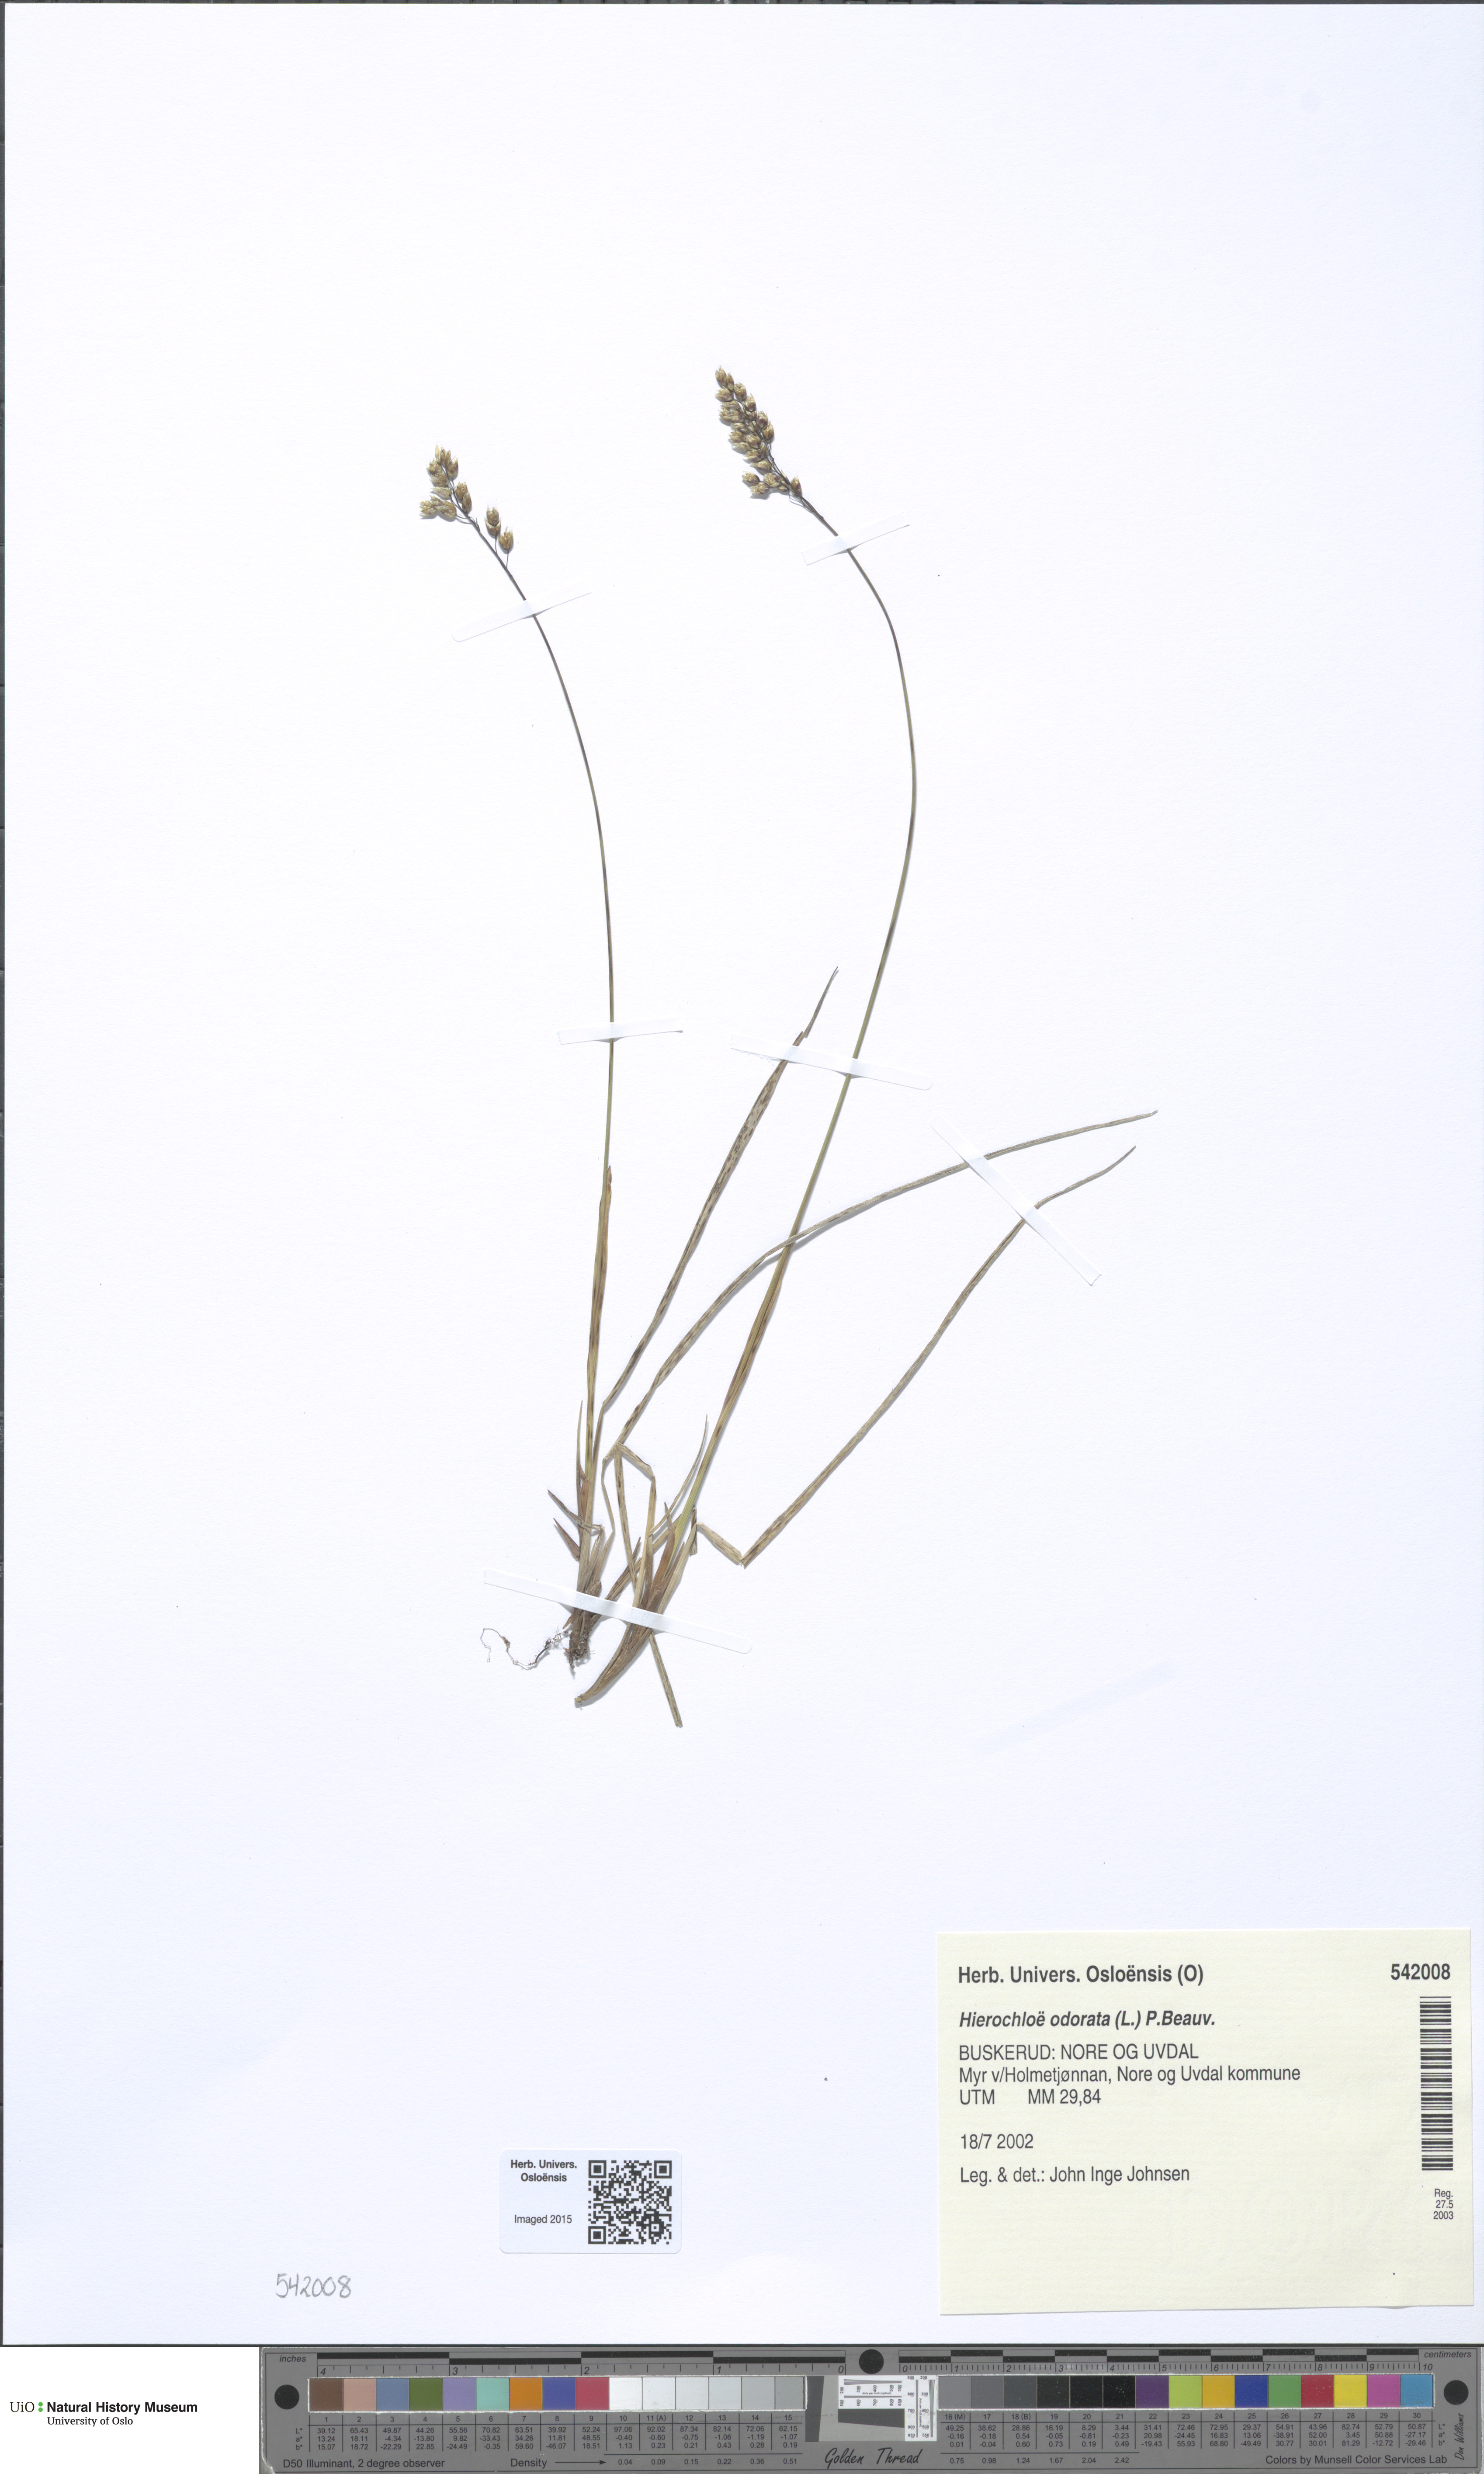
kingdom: Plantae
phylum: Tracheophyta
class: Liliopsida
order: Poales
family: Poaceae
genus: Anthoxanthum
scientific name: Anthoxanthum nitens
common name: Holy grass
